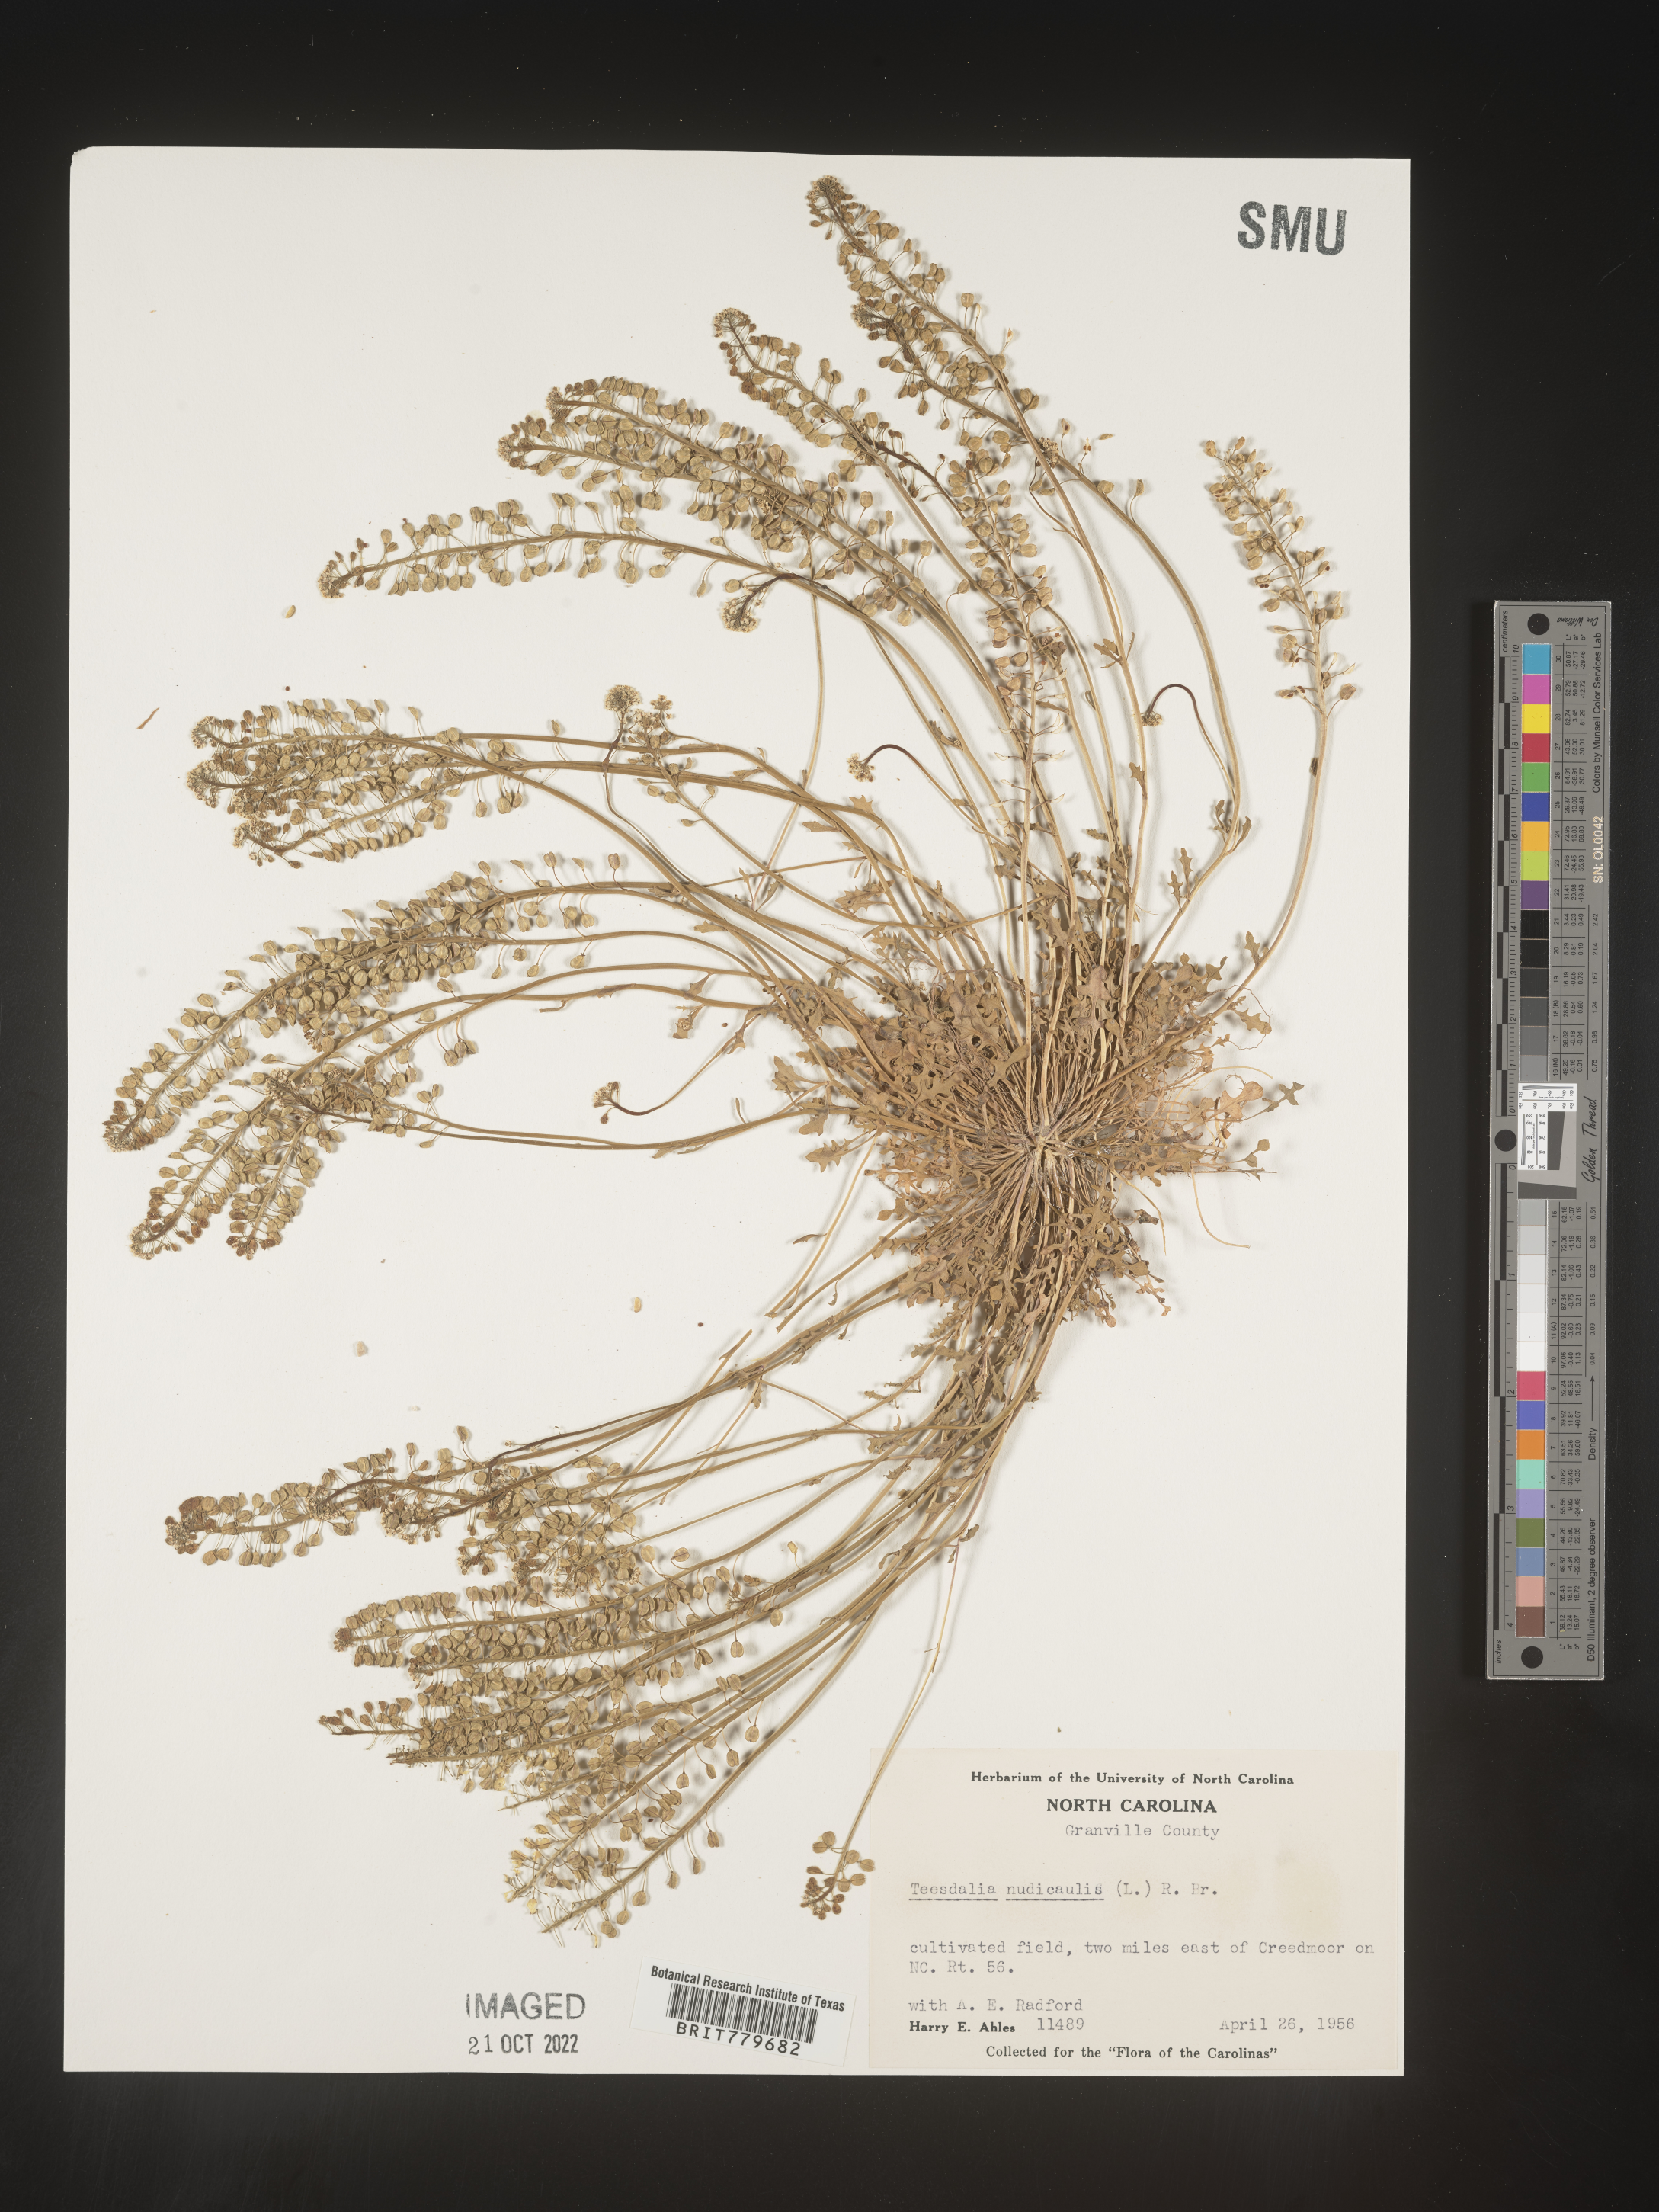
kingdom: Plantae
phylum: Tracheophyta
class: Magnoliopsida
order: Brassicales
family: Brassicaceae
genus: Teesdalia
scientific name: Teesdalia
